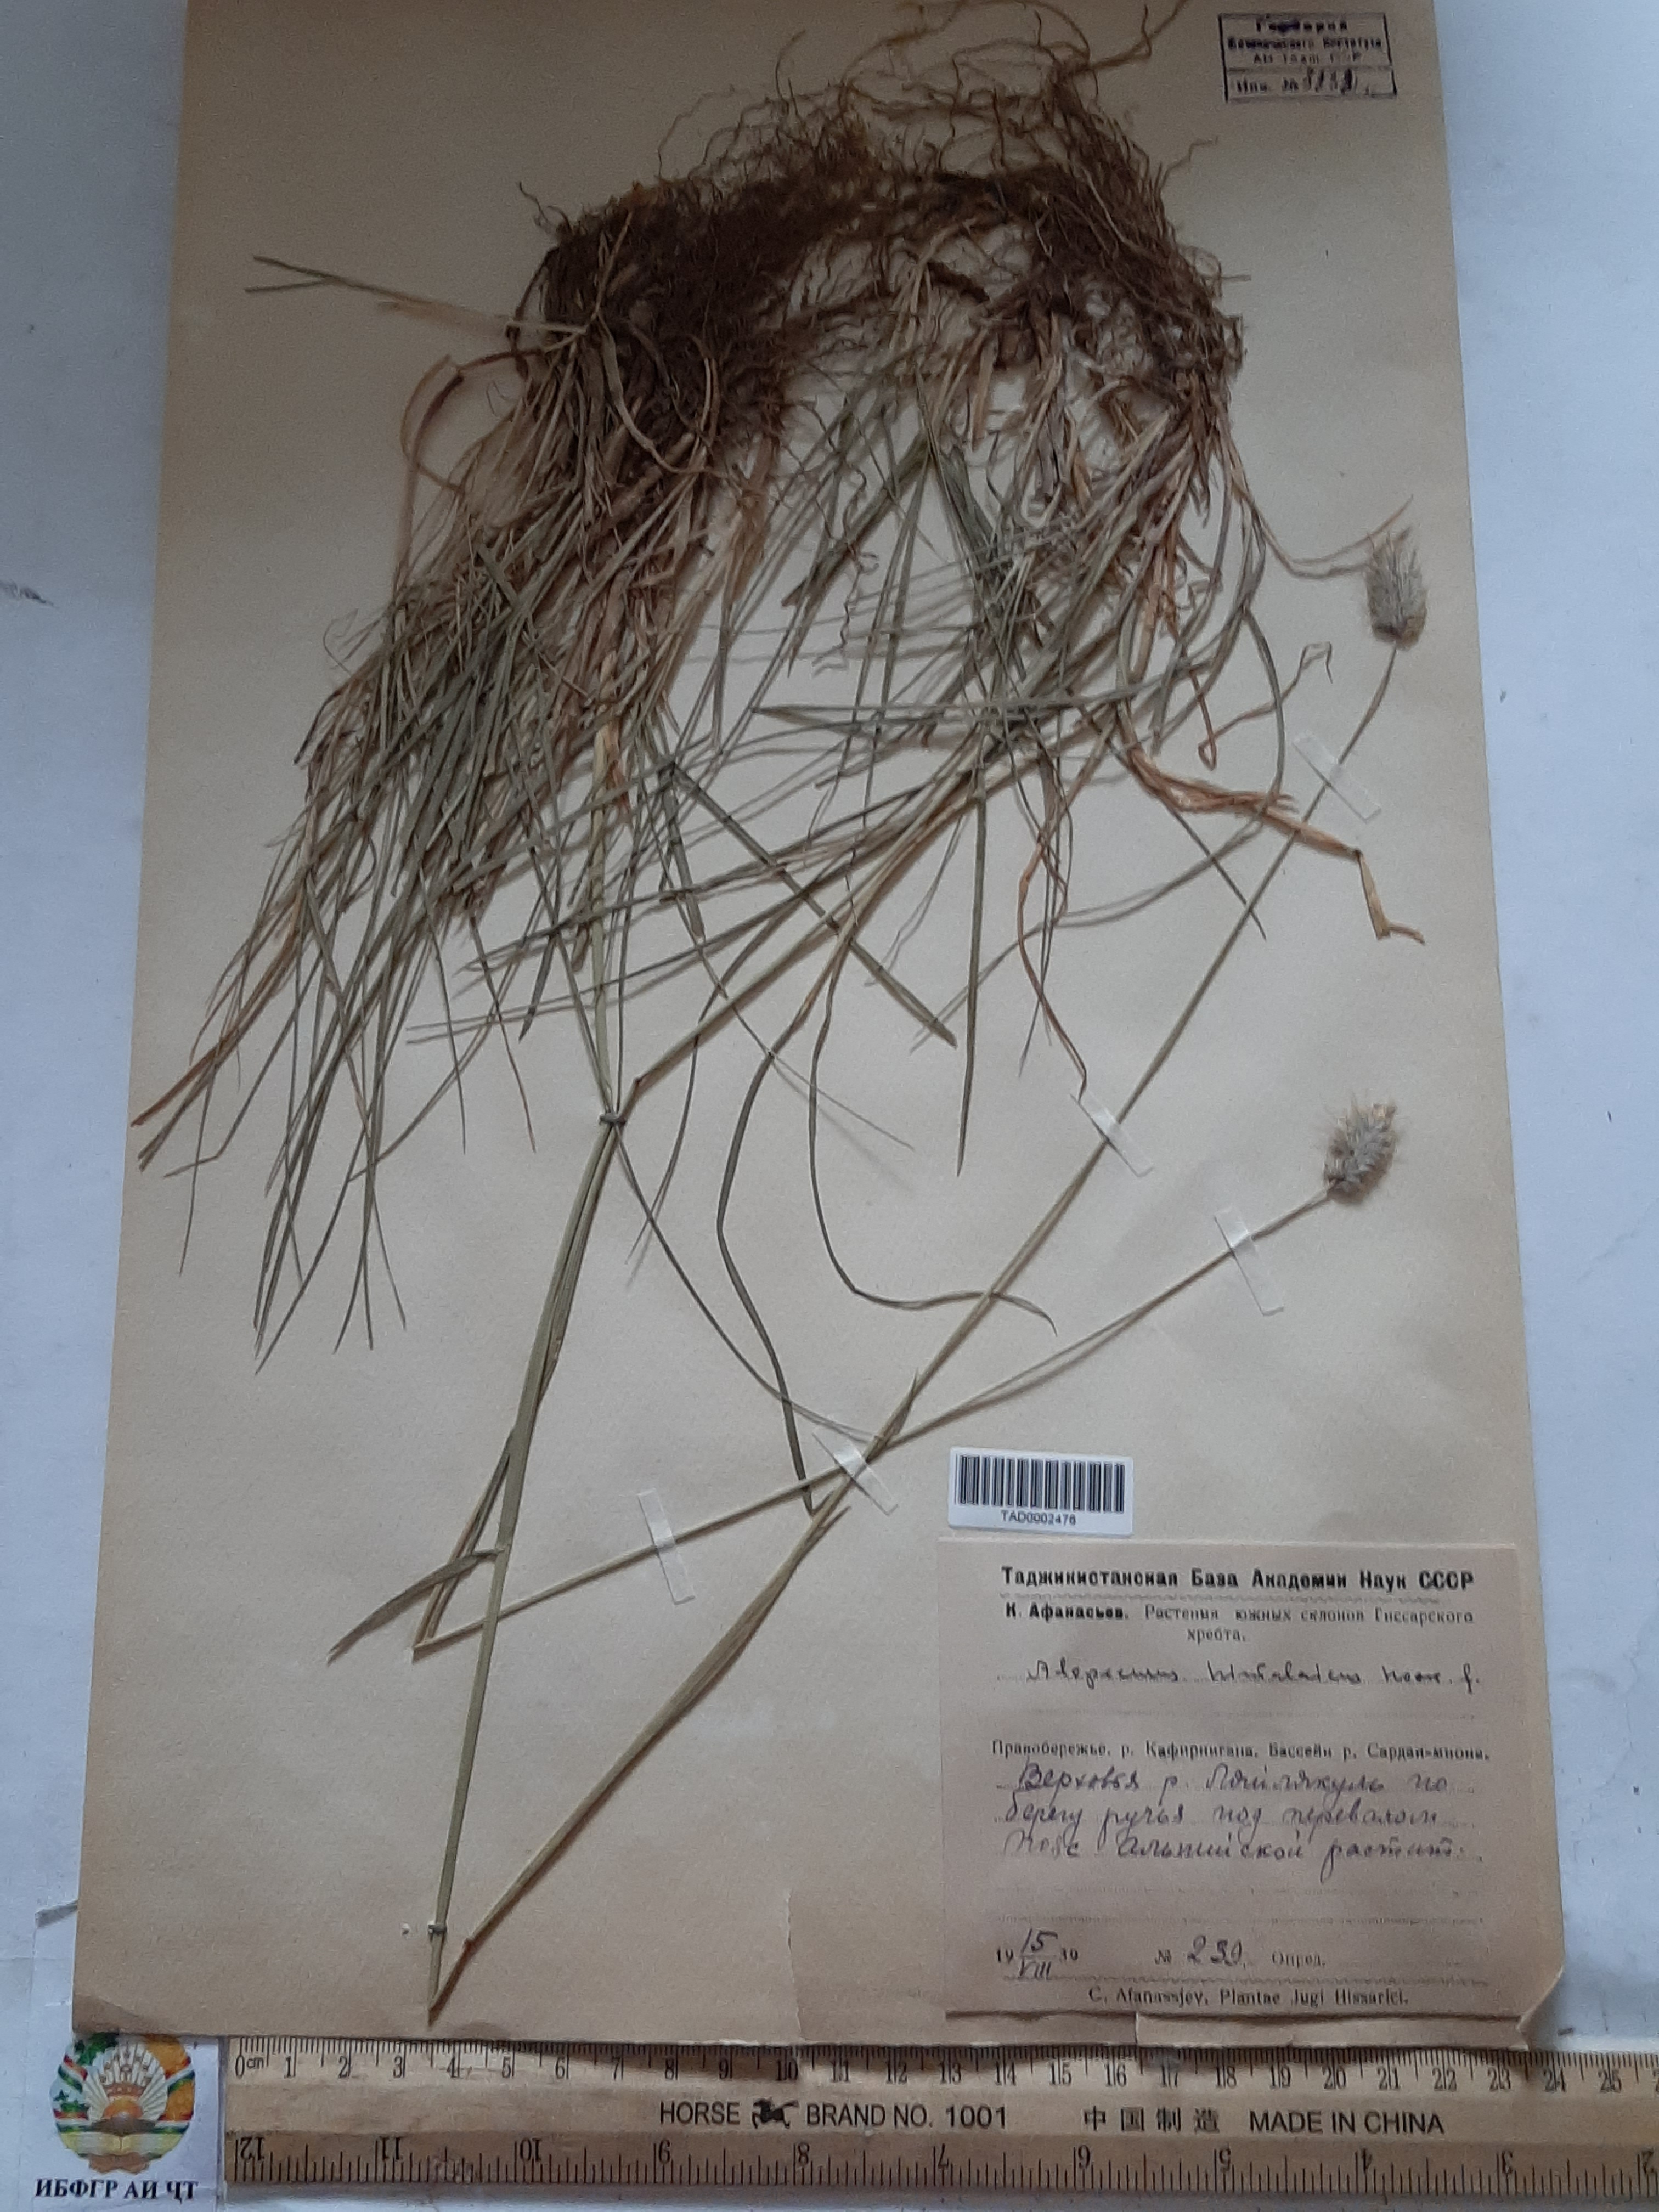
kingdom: Plantae
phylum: Tracheophyta
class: Liliopsida
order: Poales
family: Poaceae
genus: Alopecurus
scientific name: Alopecurus himalaicus
